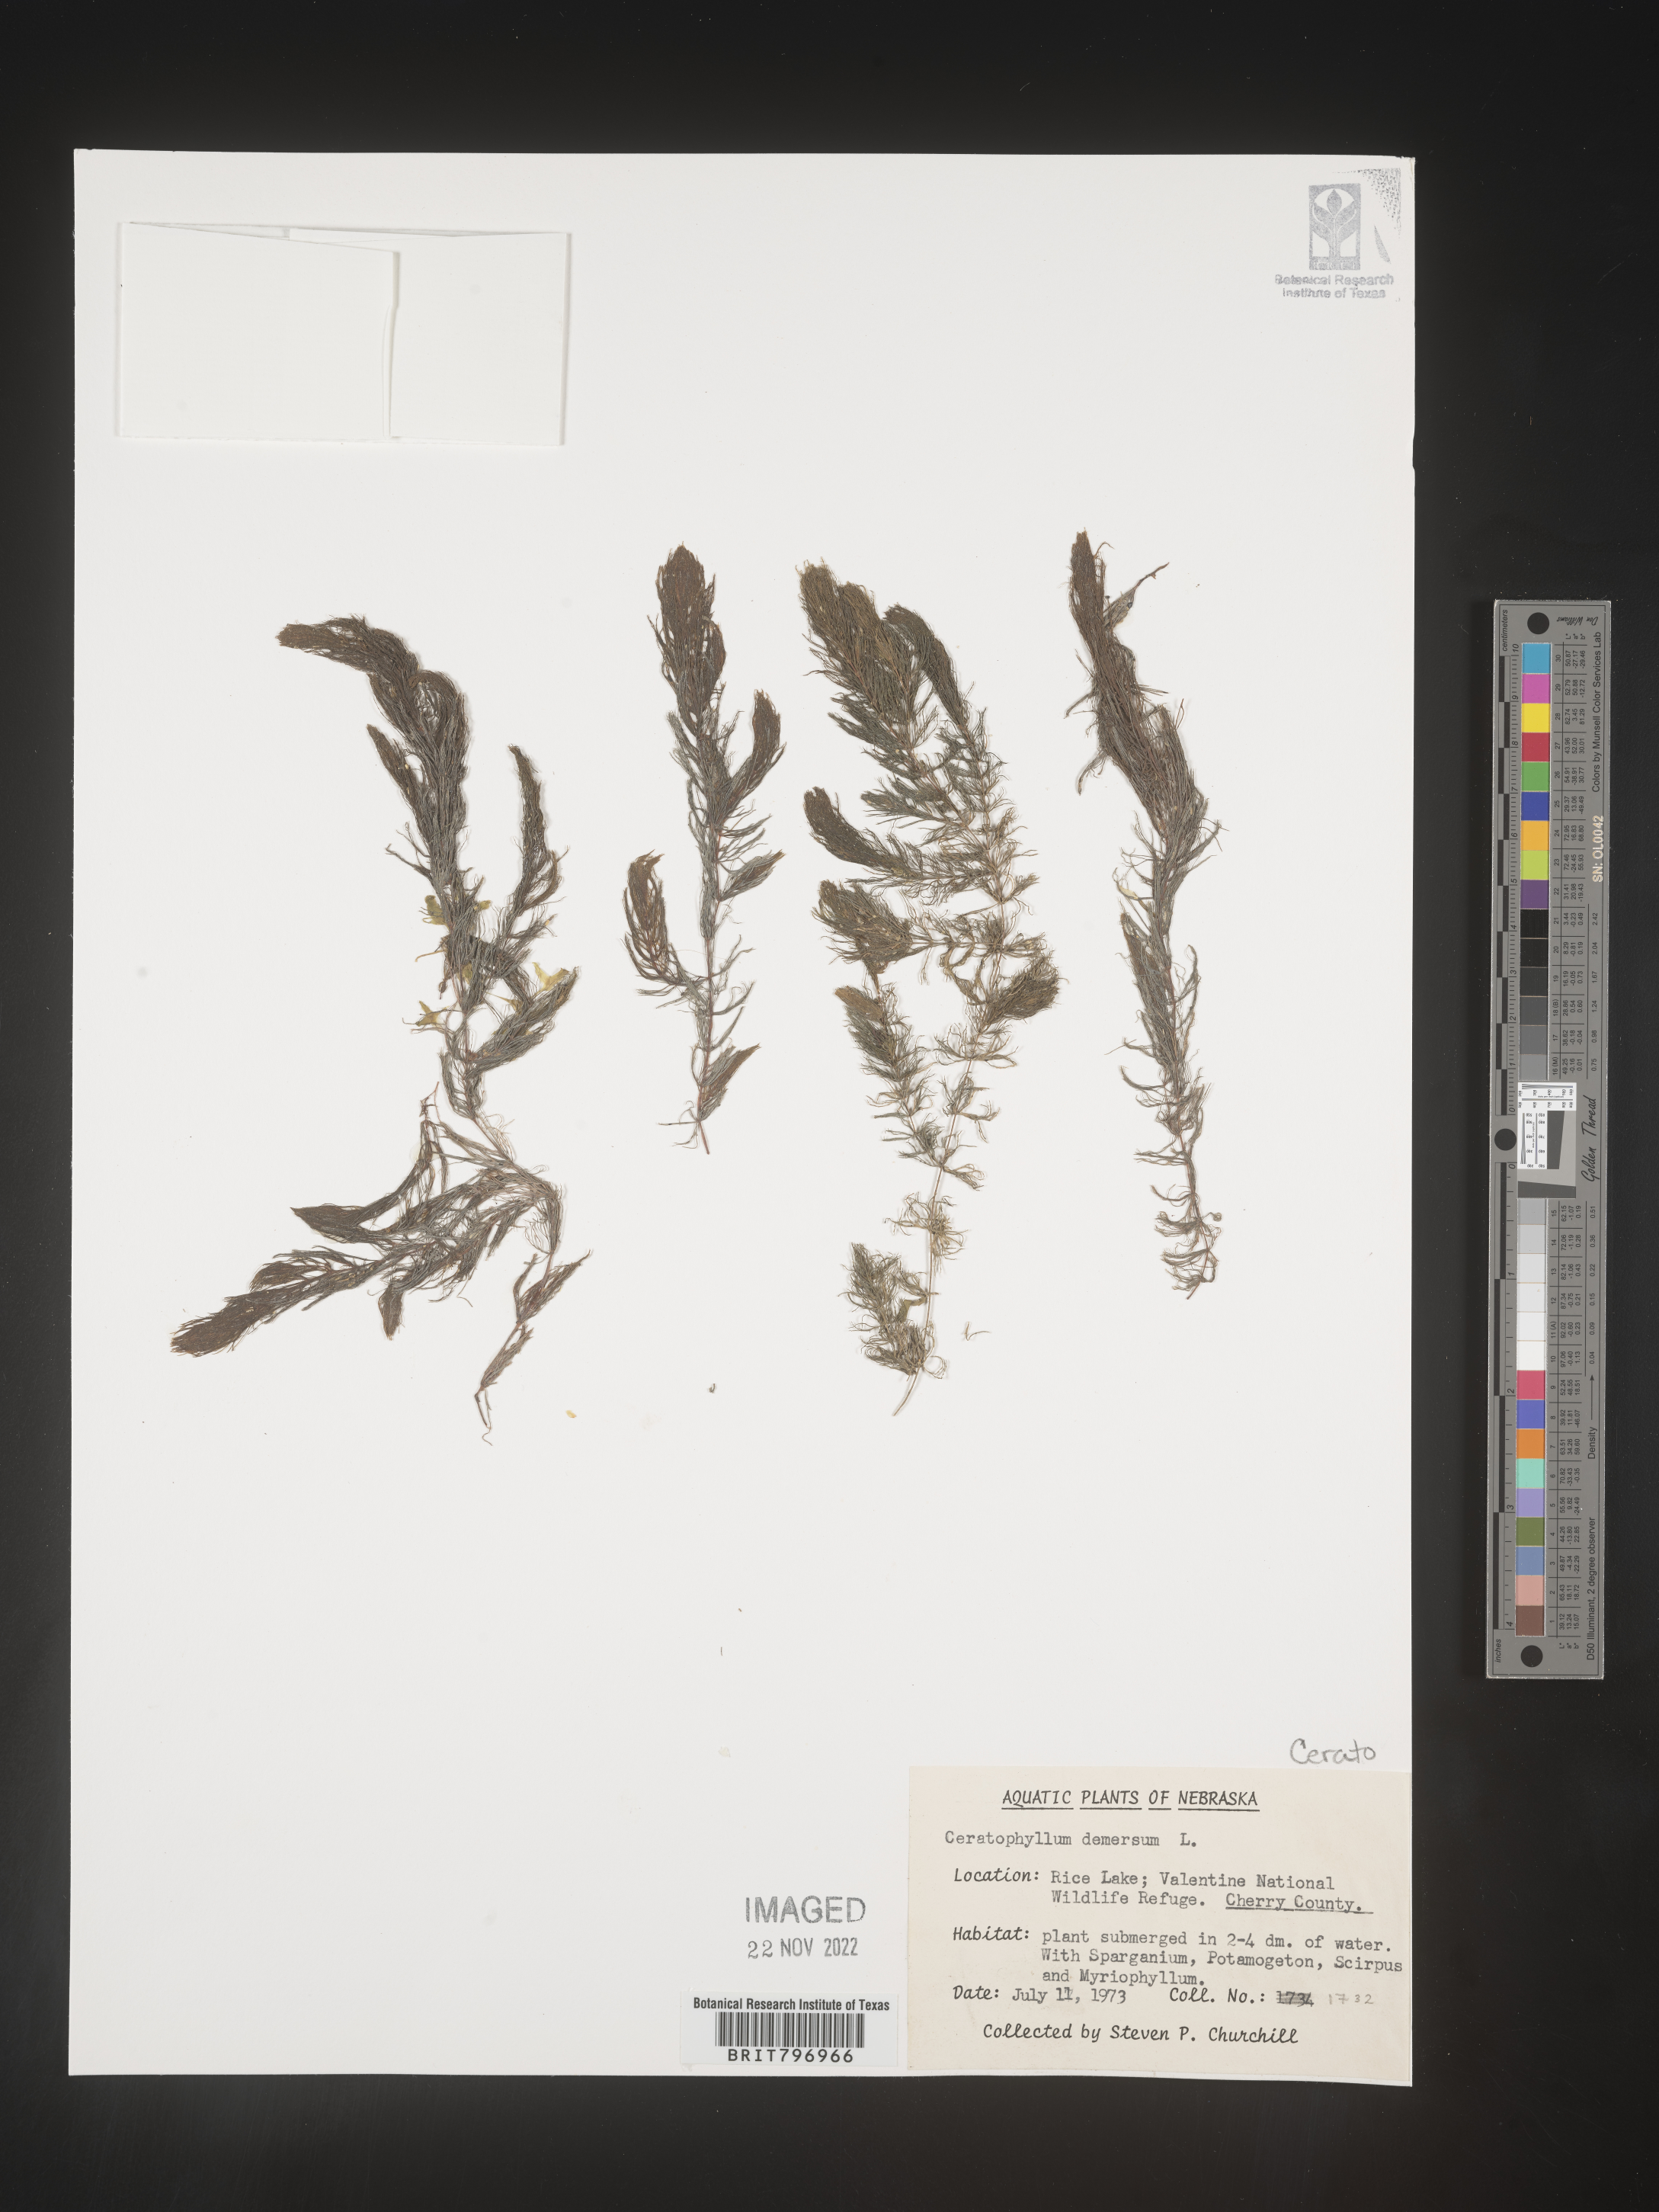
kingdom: Plantae
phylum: Tracheophyta
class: Magnoliopsida
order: Ceratophyllales
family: Ceratophyllaceae
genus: Ceratophyllum
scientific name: Ceratophyllum demersum
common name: Rigid hornwort
